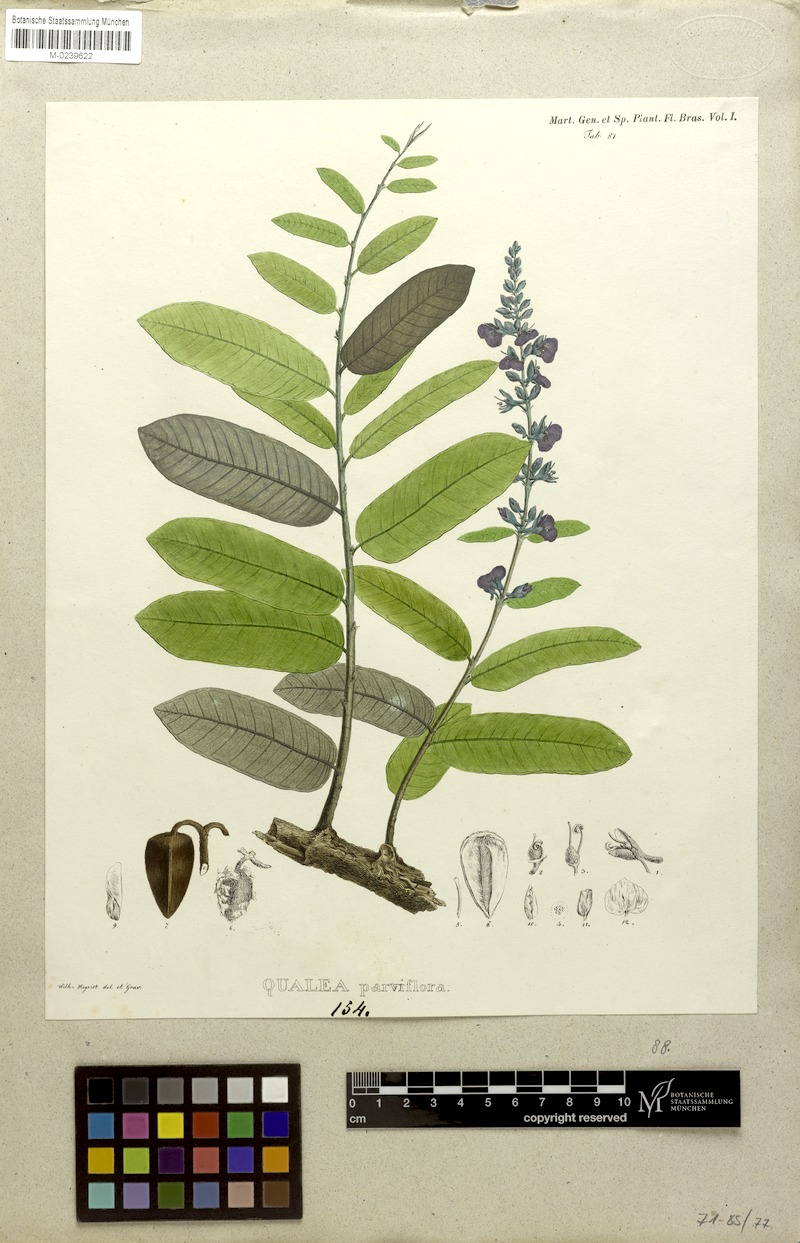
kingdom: Plantae
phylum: Tracheophyta
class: Magnoliopsida
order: Myrtales
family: Vochysiaceae
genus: Qualea
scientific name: Qualea parviflora
